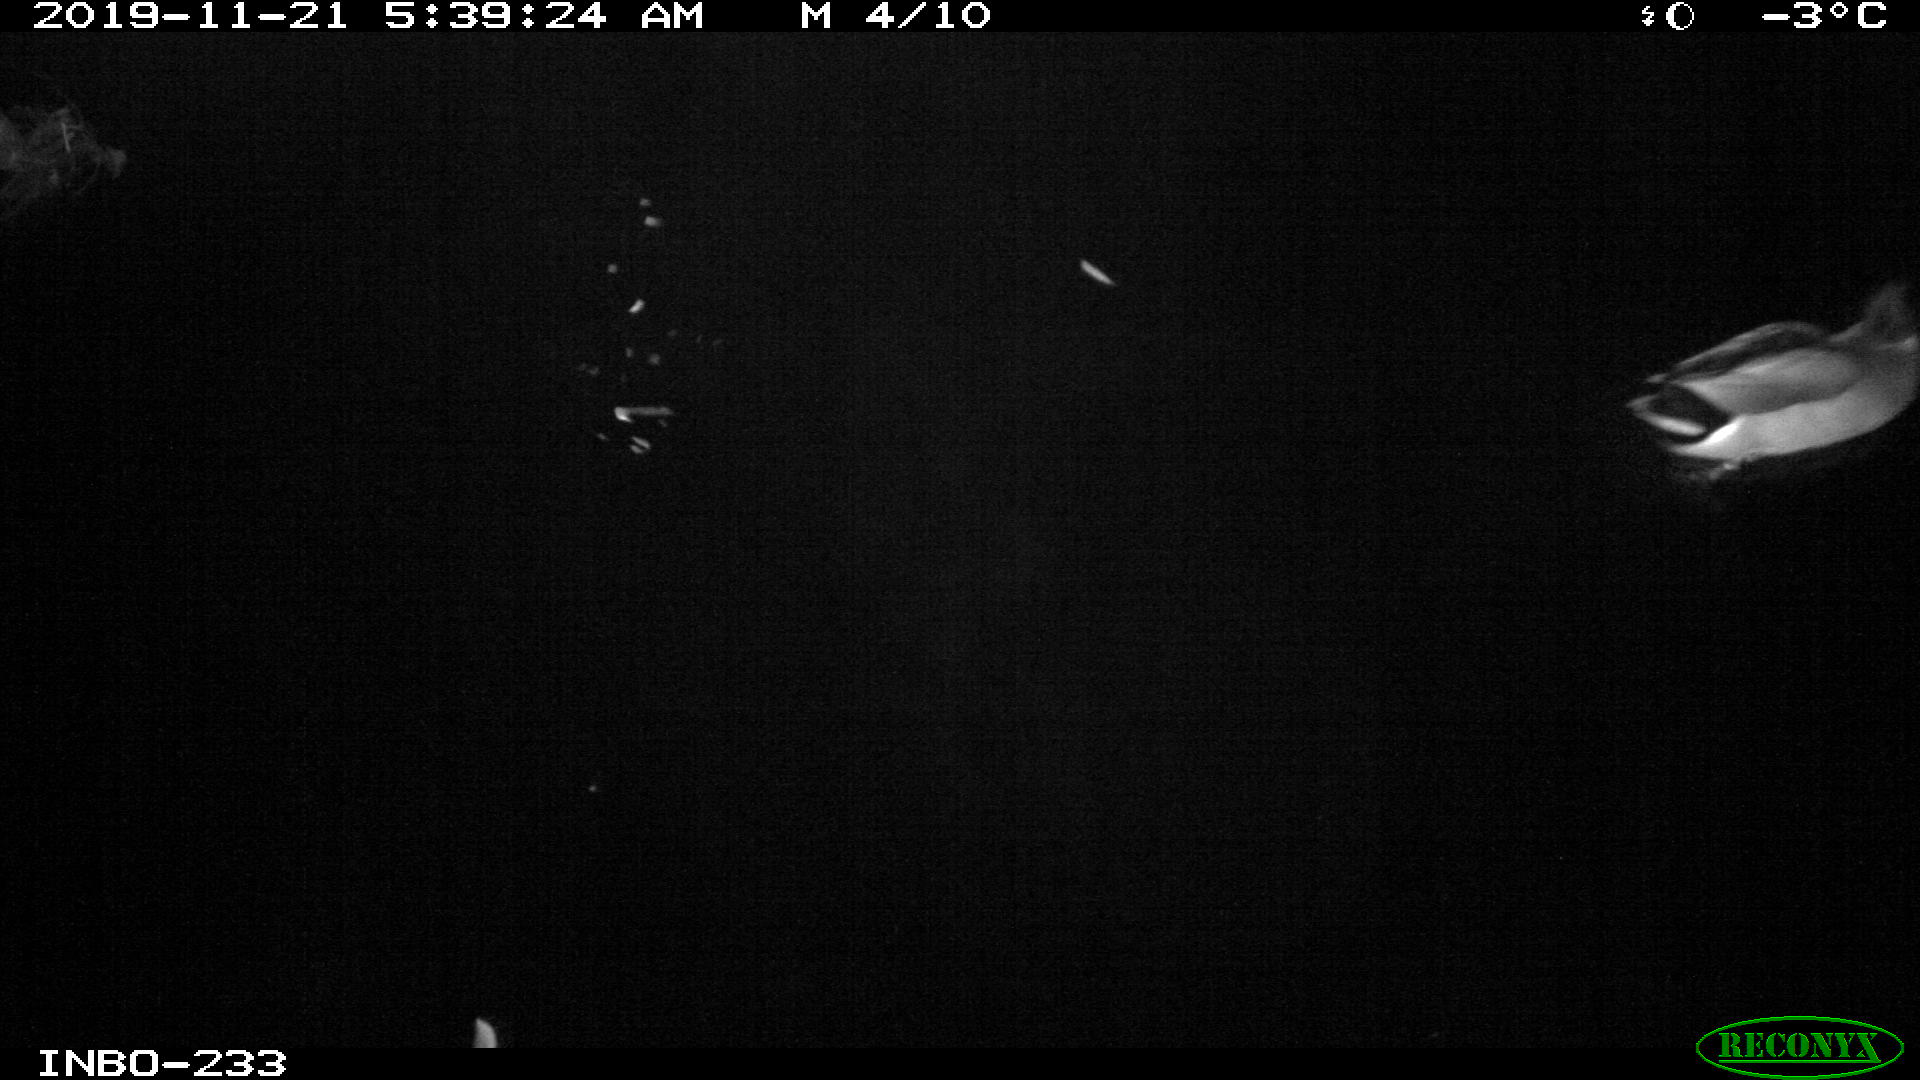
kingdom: Animalia
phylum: Chordata
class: Aves
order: Anseriformes
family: Anatidae
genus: Anas
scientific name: Anas platyrhynchos
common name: Mallard
